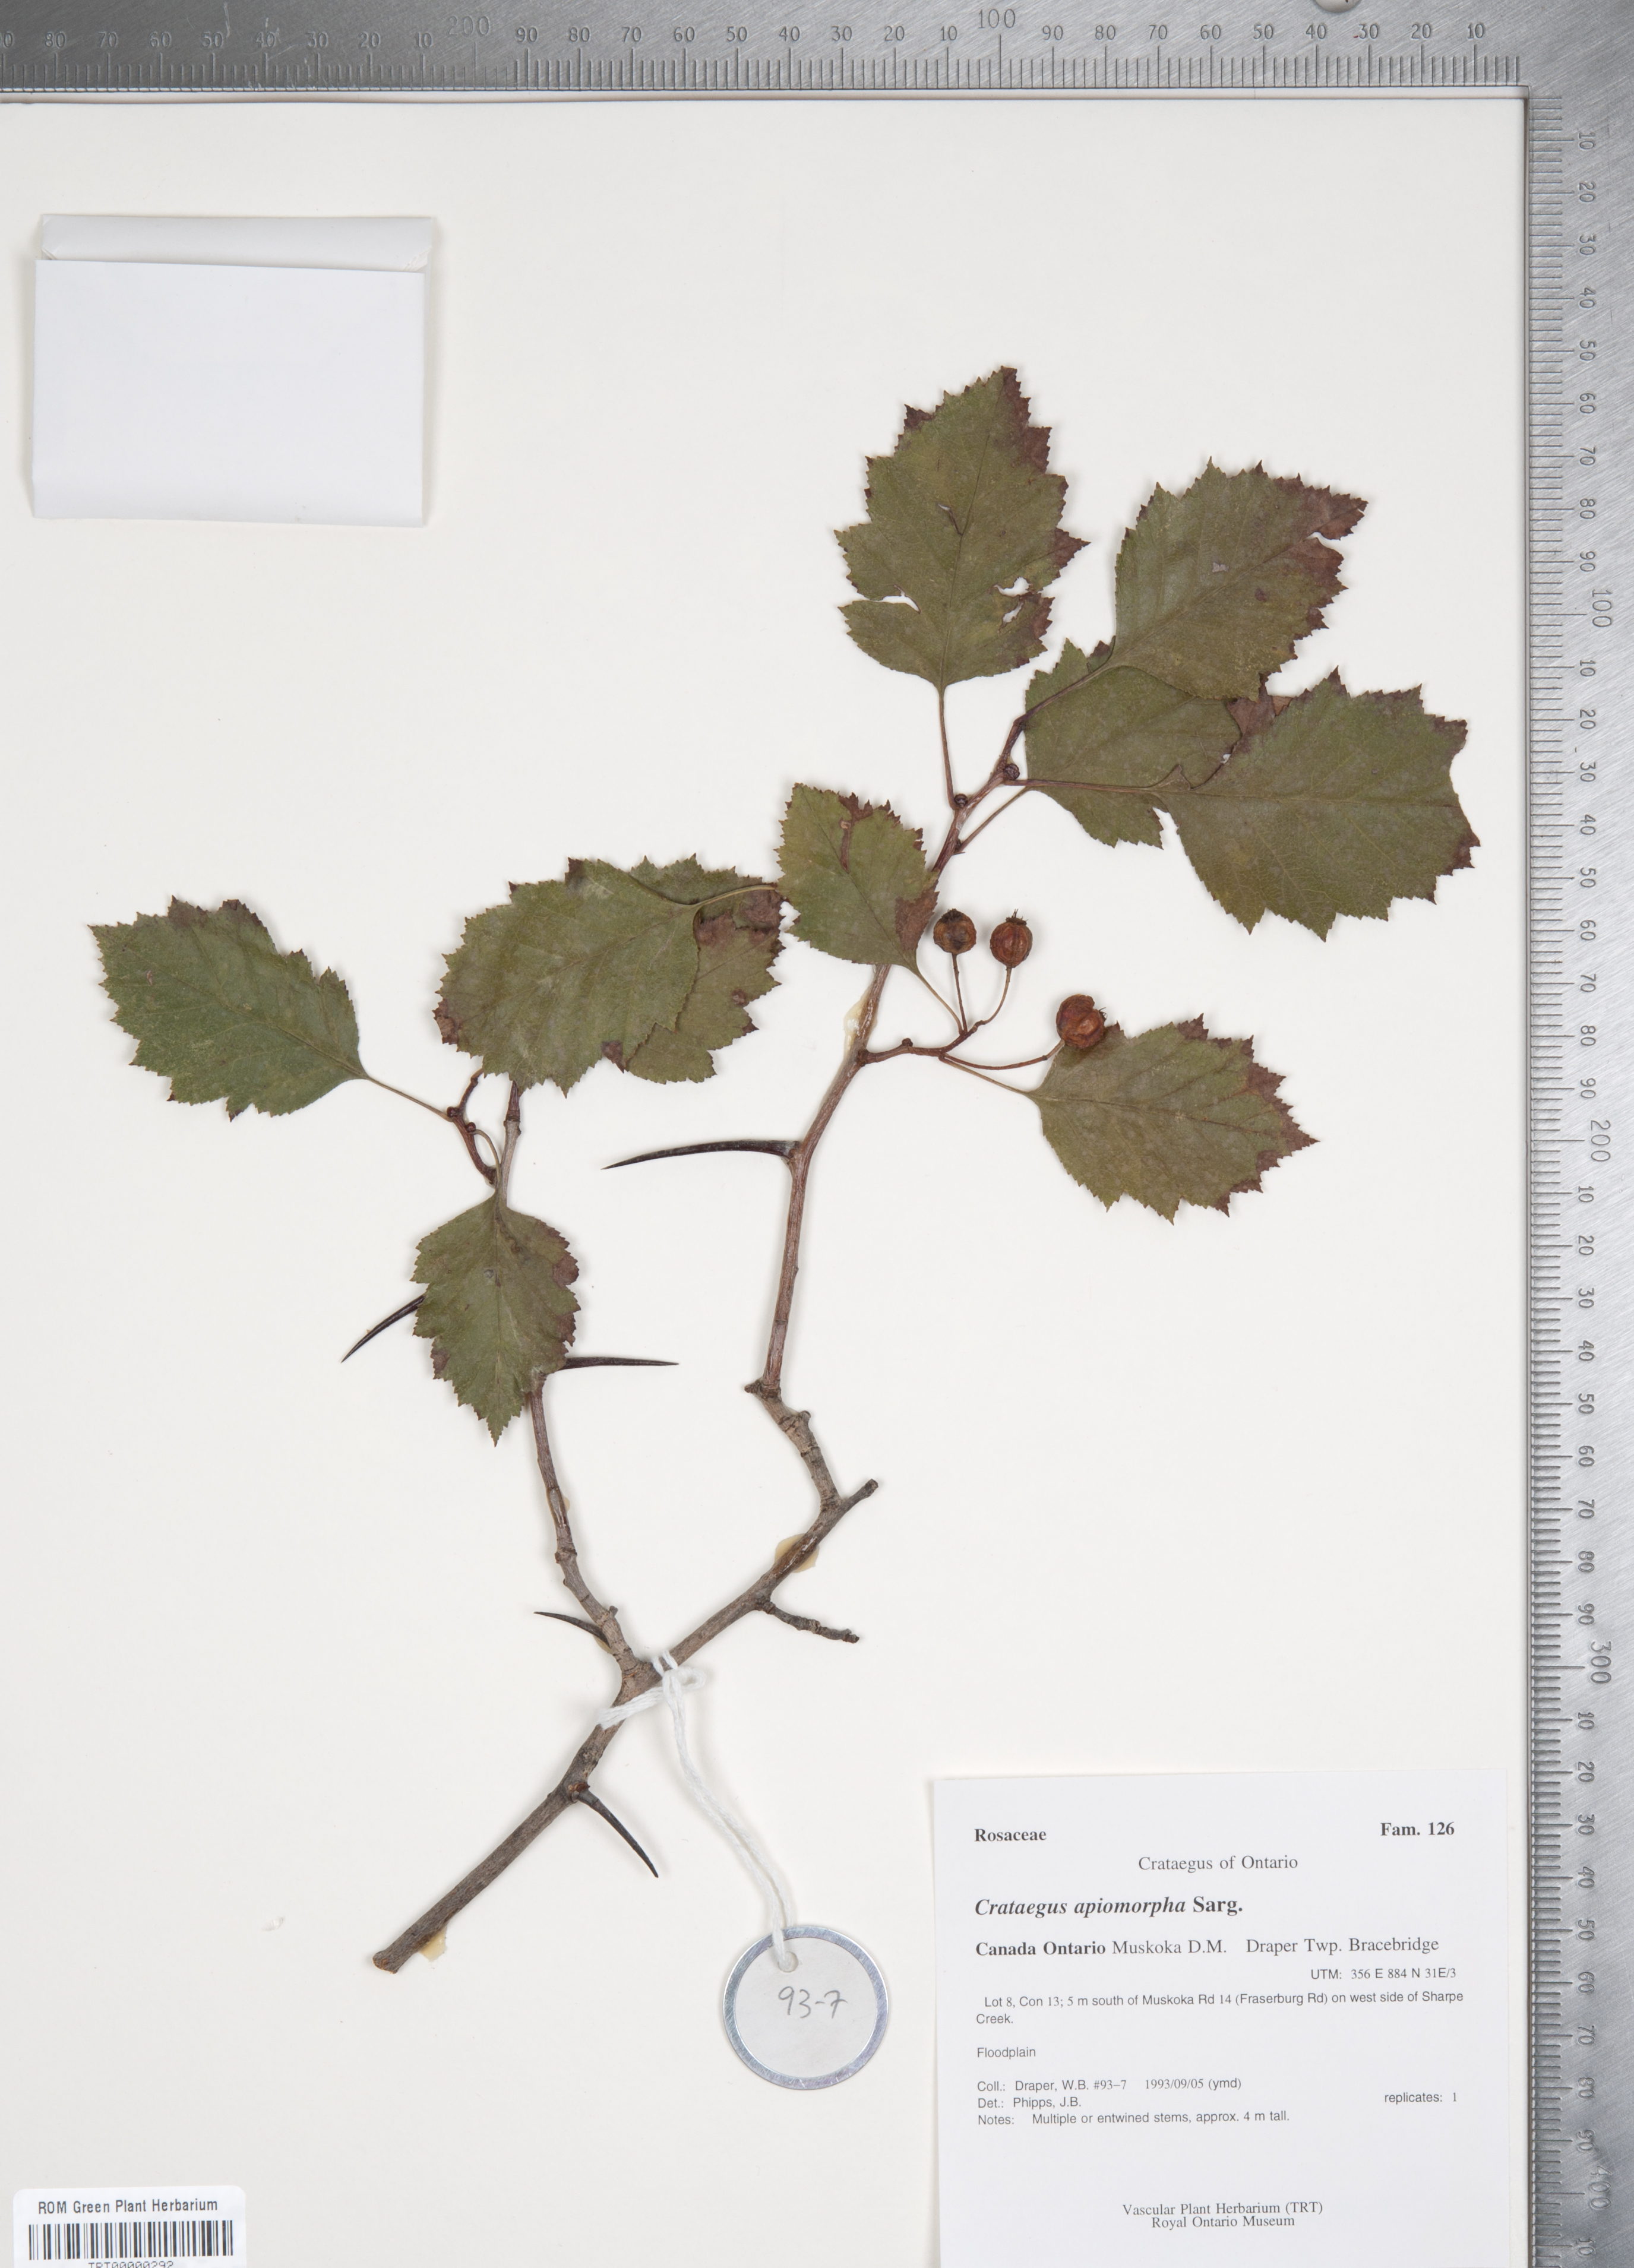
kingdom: Plantae
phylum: Tracheophyta
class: Magnoliopsida
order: Rosales
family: Rosaceae
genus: Crataegus
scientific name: Crataegus fluviatilis
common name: Fort sheridan hawthorn
